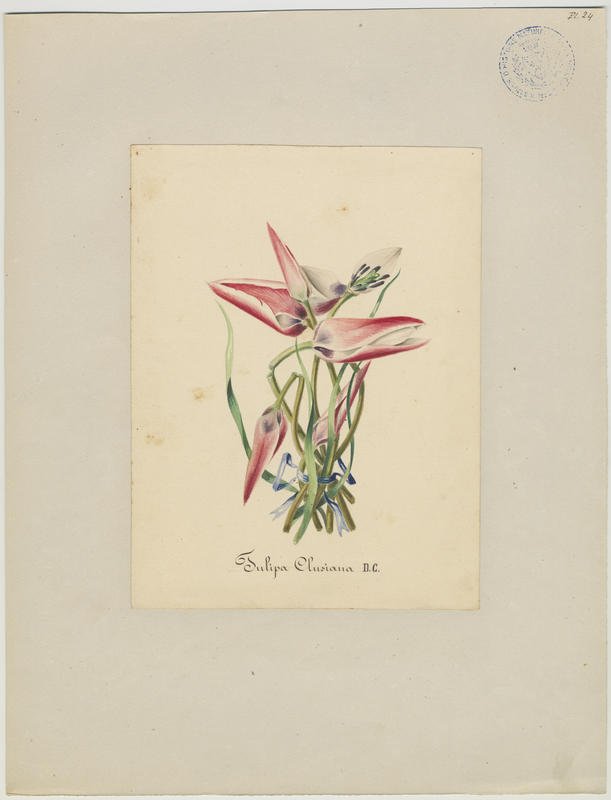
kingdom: Plantae
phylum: Tracheophyta
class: Liliopsida
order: Liliales
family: Liliaceae
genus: Tulipa
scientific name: Tulipa clusiana
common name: Lady tulip
